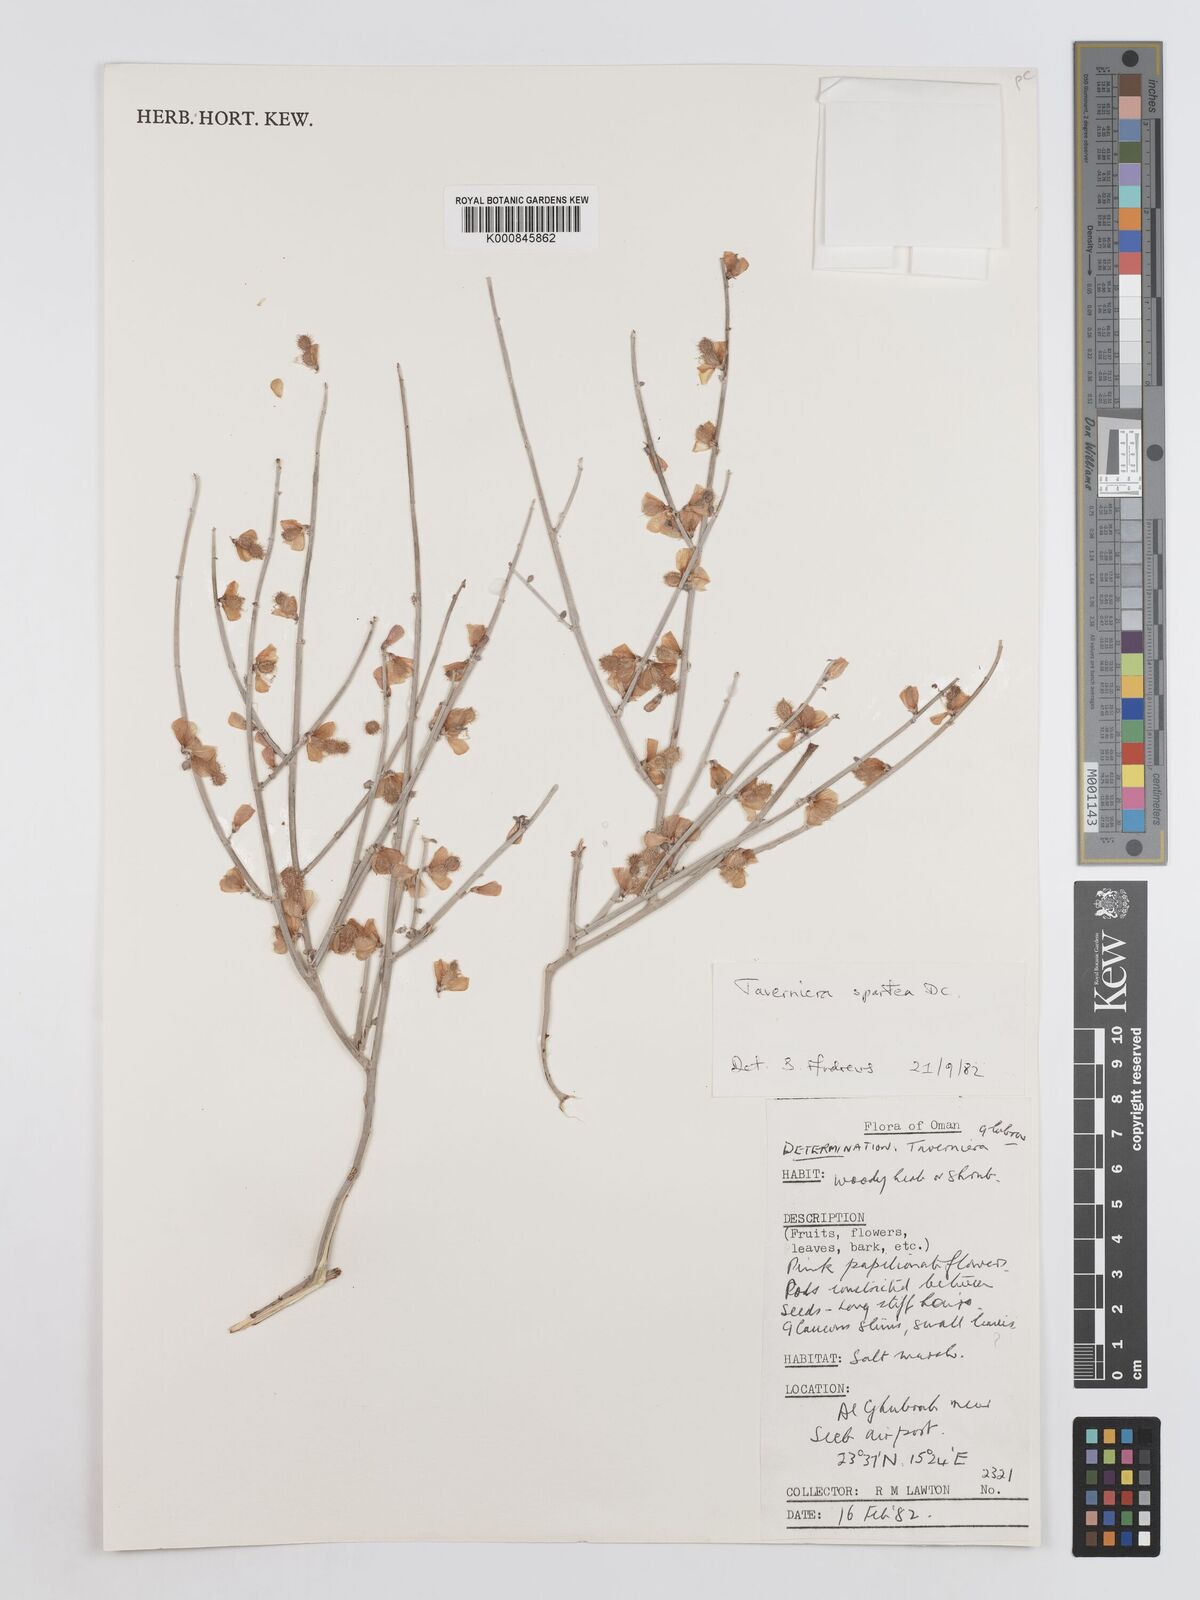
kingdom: Plantae
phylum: Tracheophyta
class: Magnoliopsida
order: Fabales
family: Fabaceae
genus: Taverniera
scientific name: Taverniera spartea
